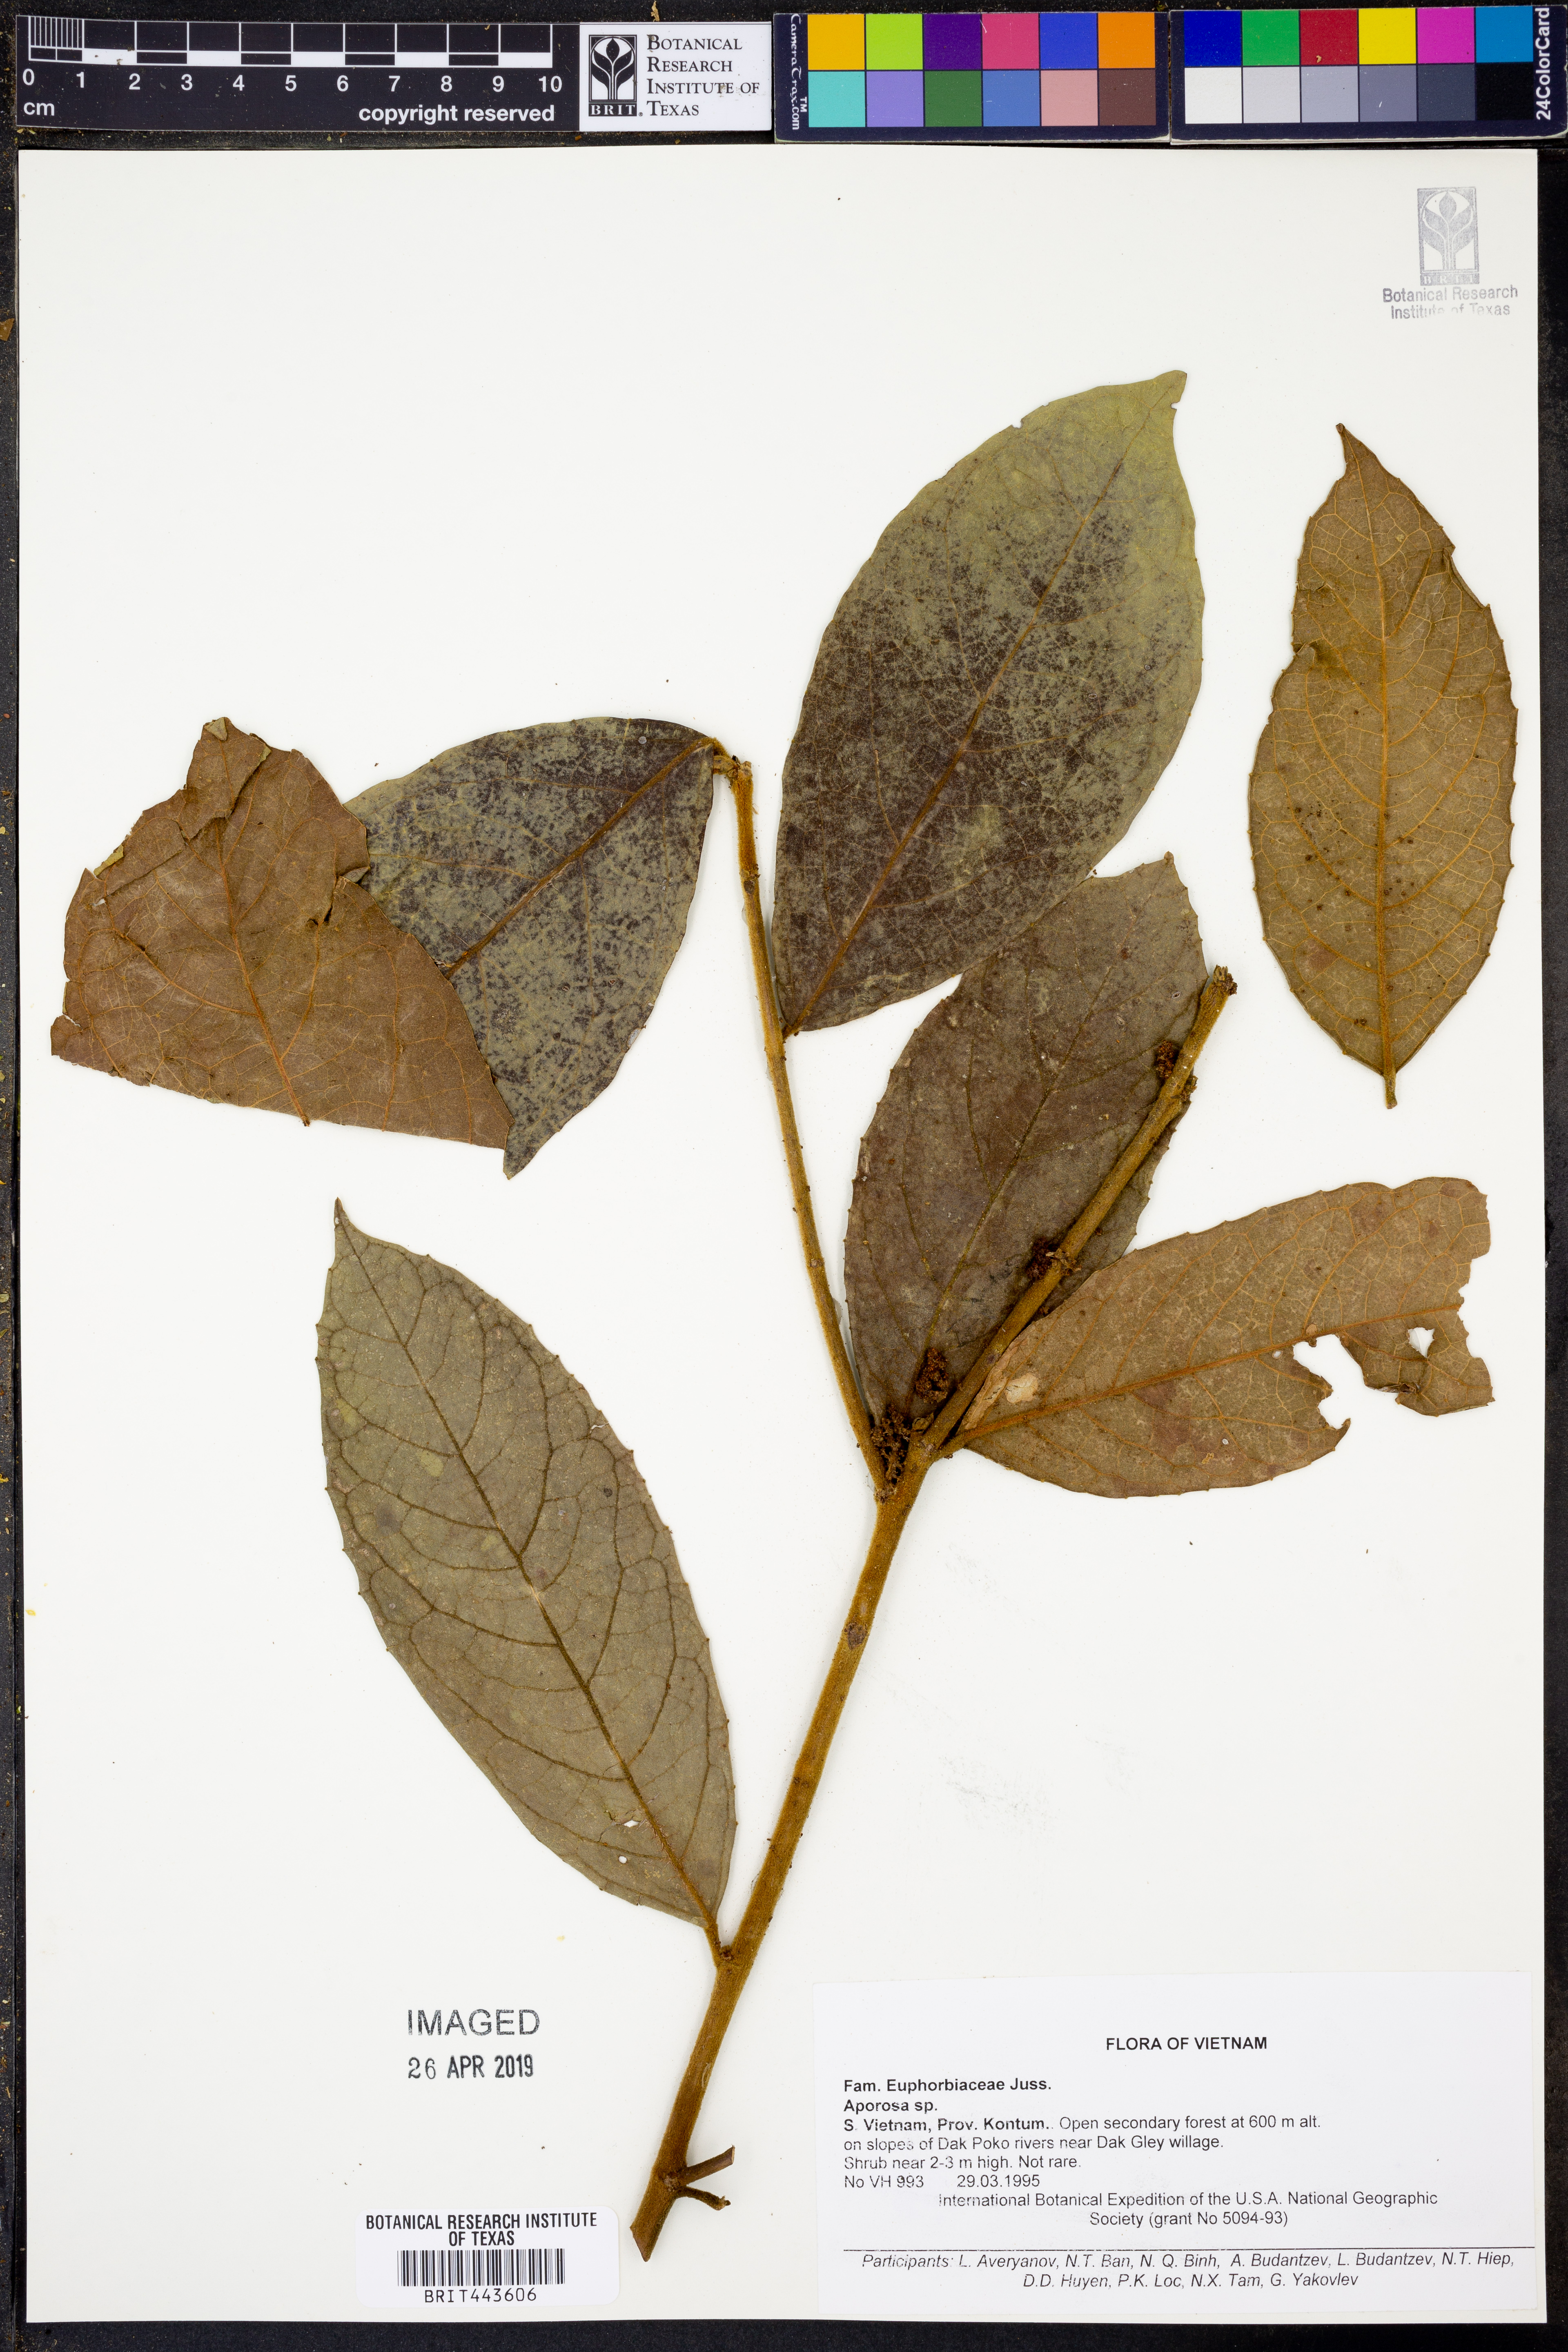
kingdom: Plantae
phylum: Tracheophyta
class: Magnoliopsida
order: Malpighiales
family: Phyllanthaceae
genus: Aporosa
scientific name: Aporosa
